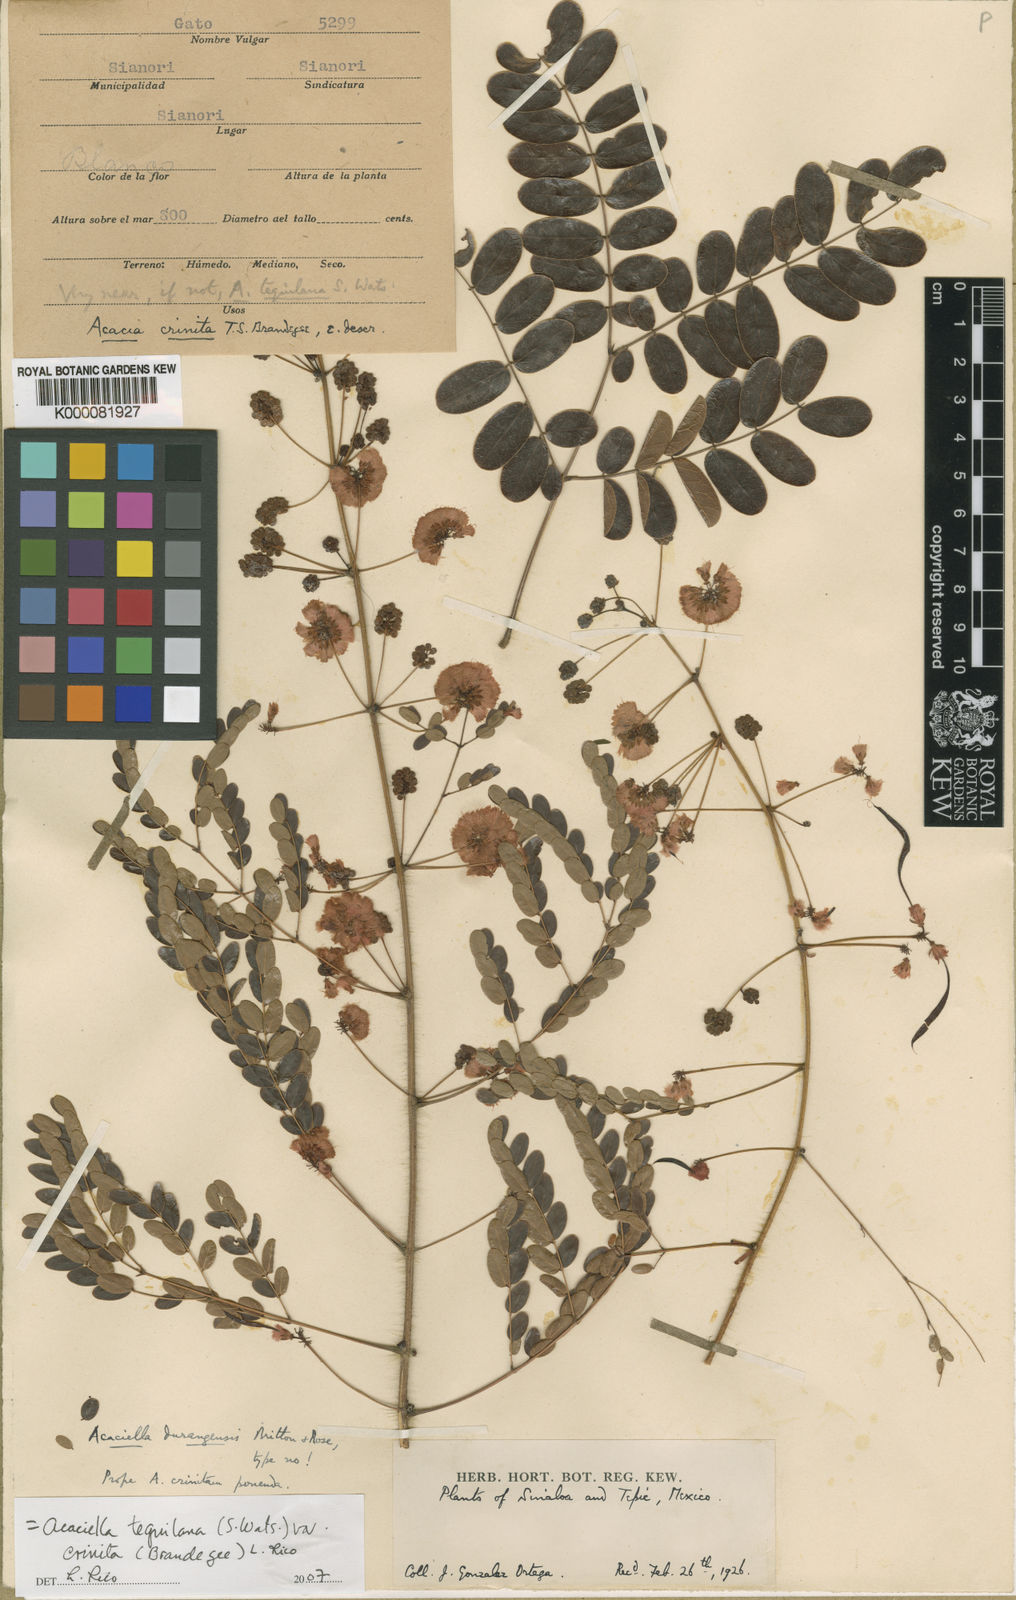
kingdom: Plantae
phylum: Tracheophyta
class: Magnoliopsida
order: Fabales
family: Fabaceae
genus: Acaciella
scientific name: Acaciella tequilana
